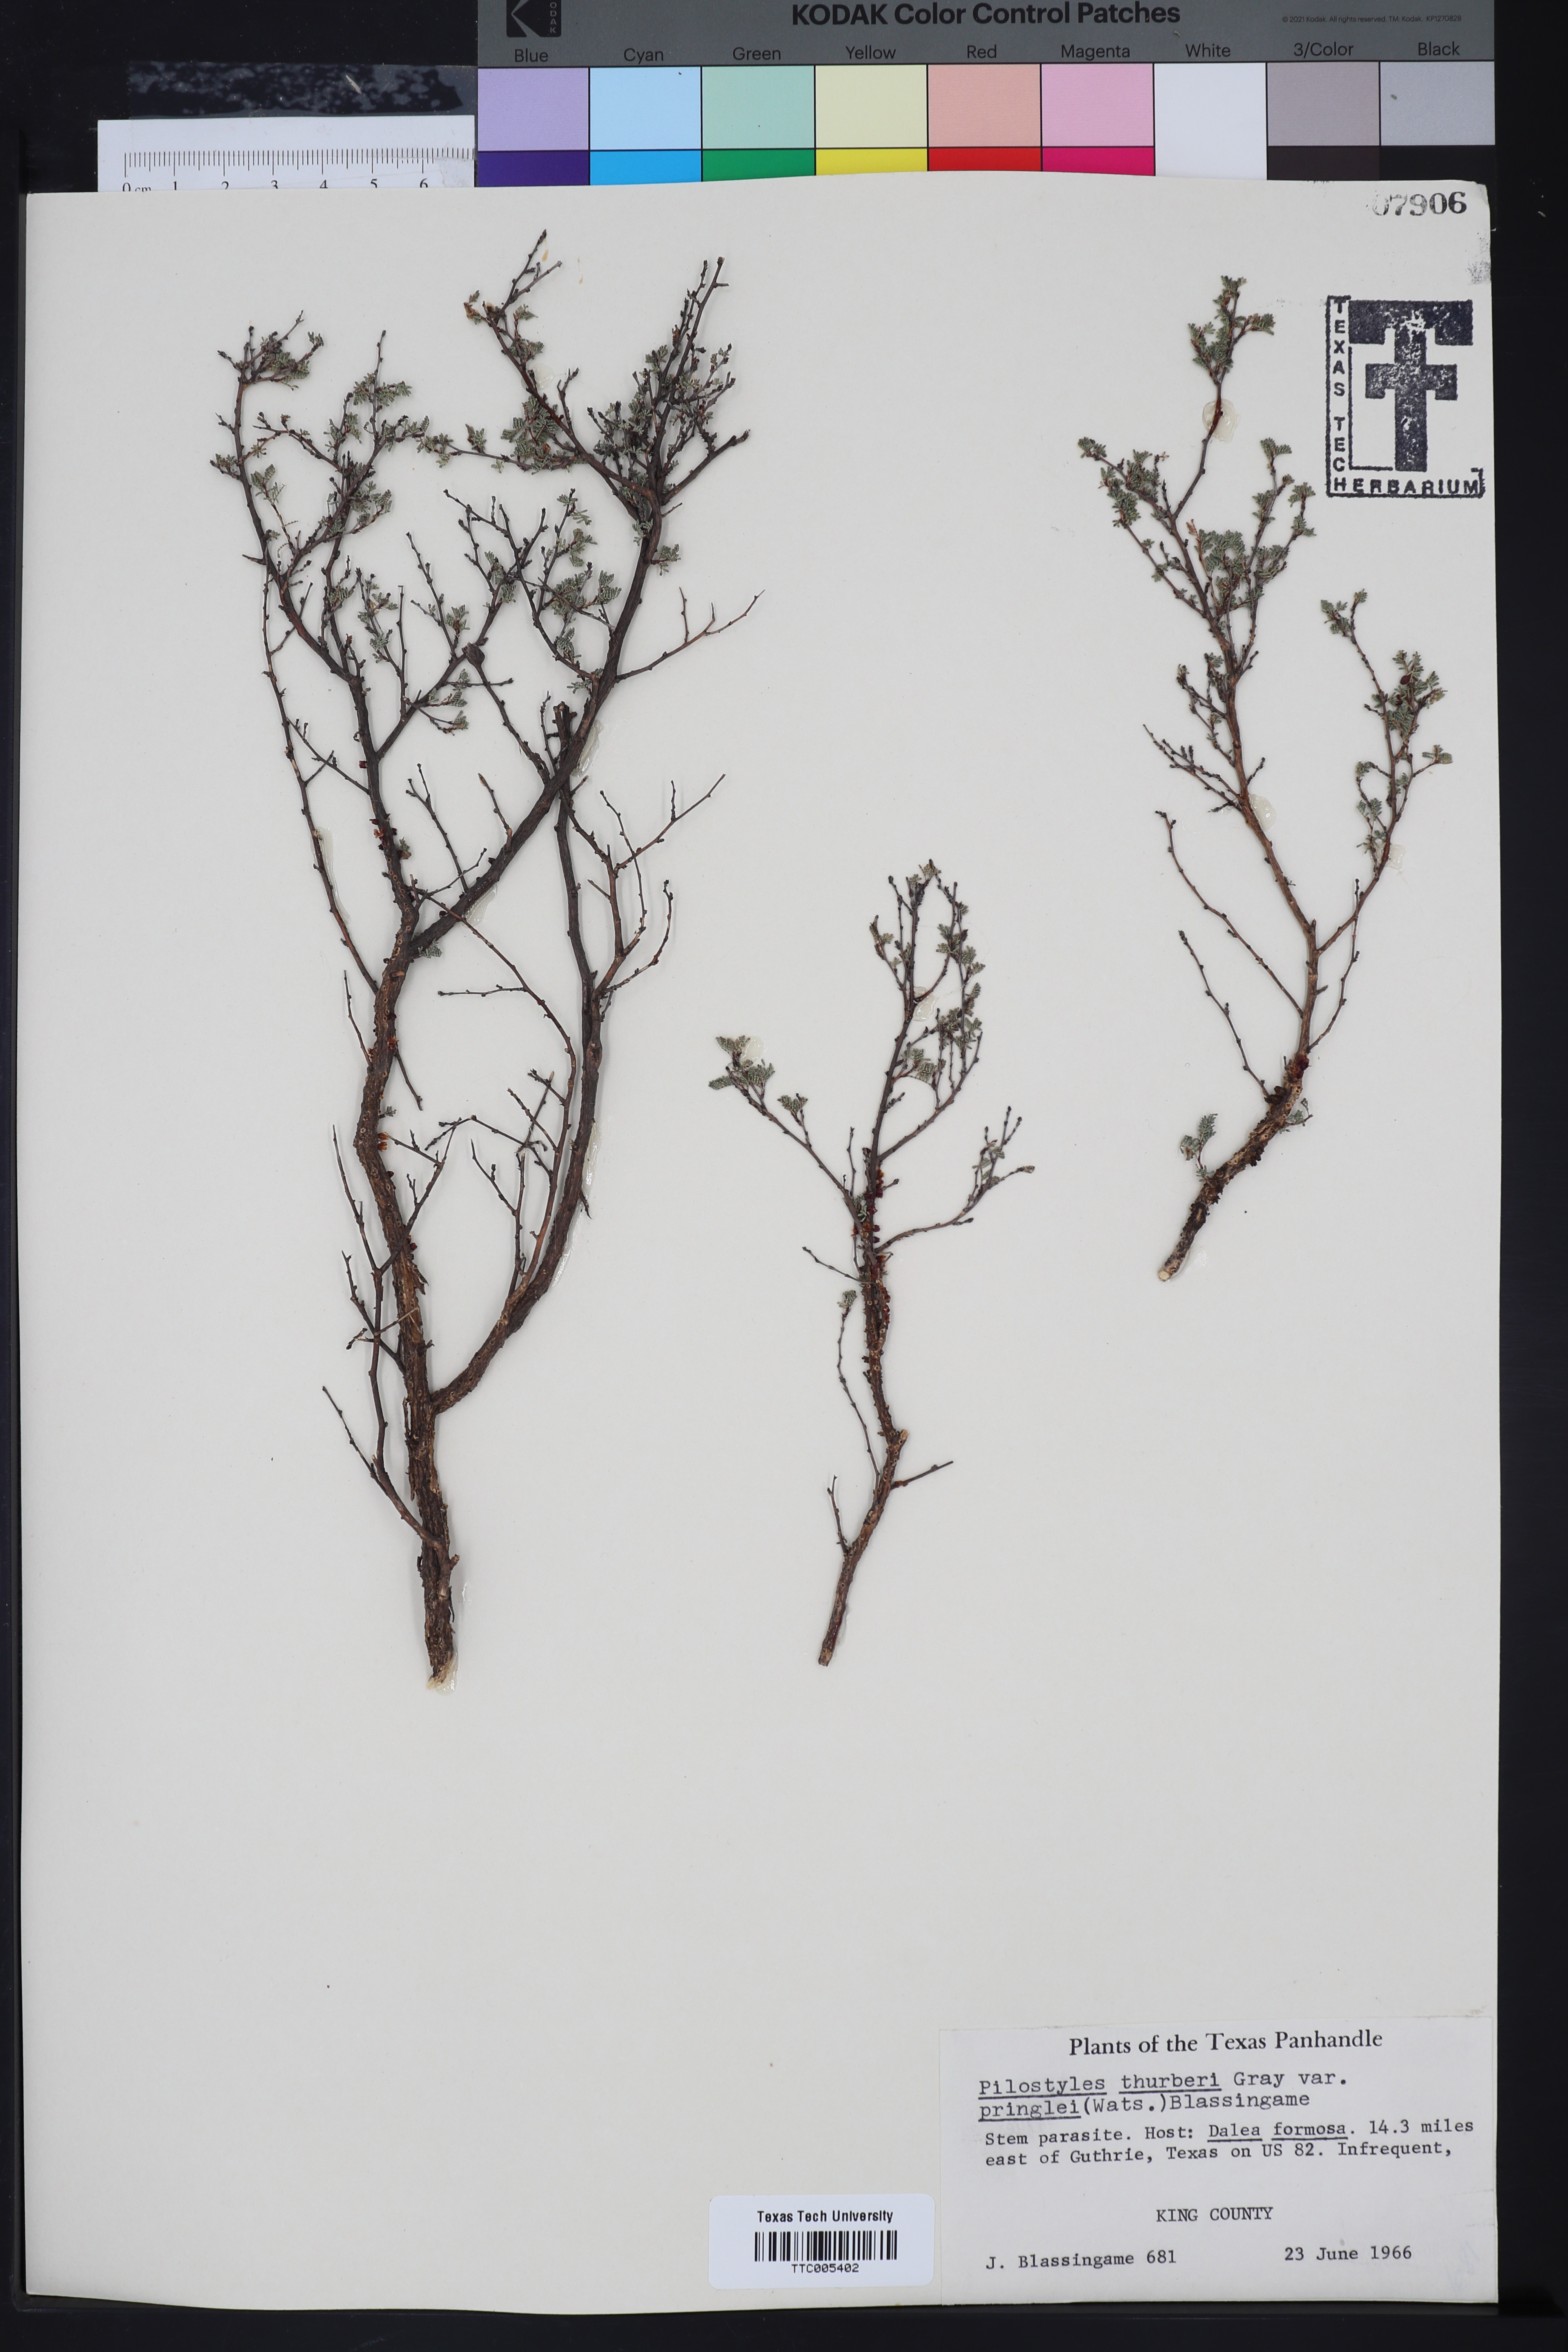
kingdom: Plantae
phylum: Tracheophyta
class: Magnoliopsida
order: Cucurbitales
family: Apodanthaceae
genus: Pilostyles
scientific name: Pilostyles thurberi
